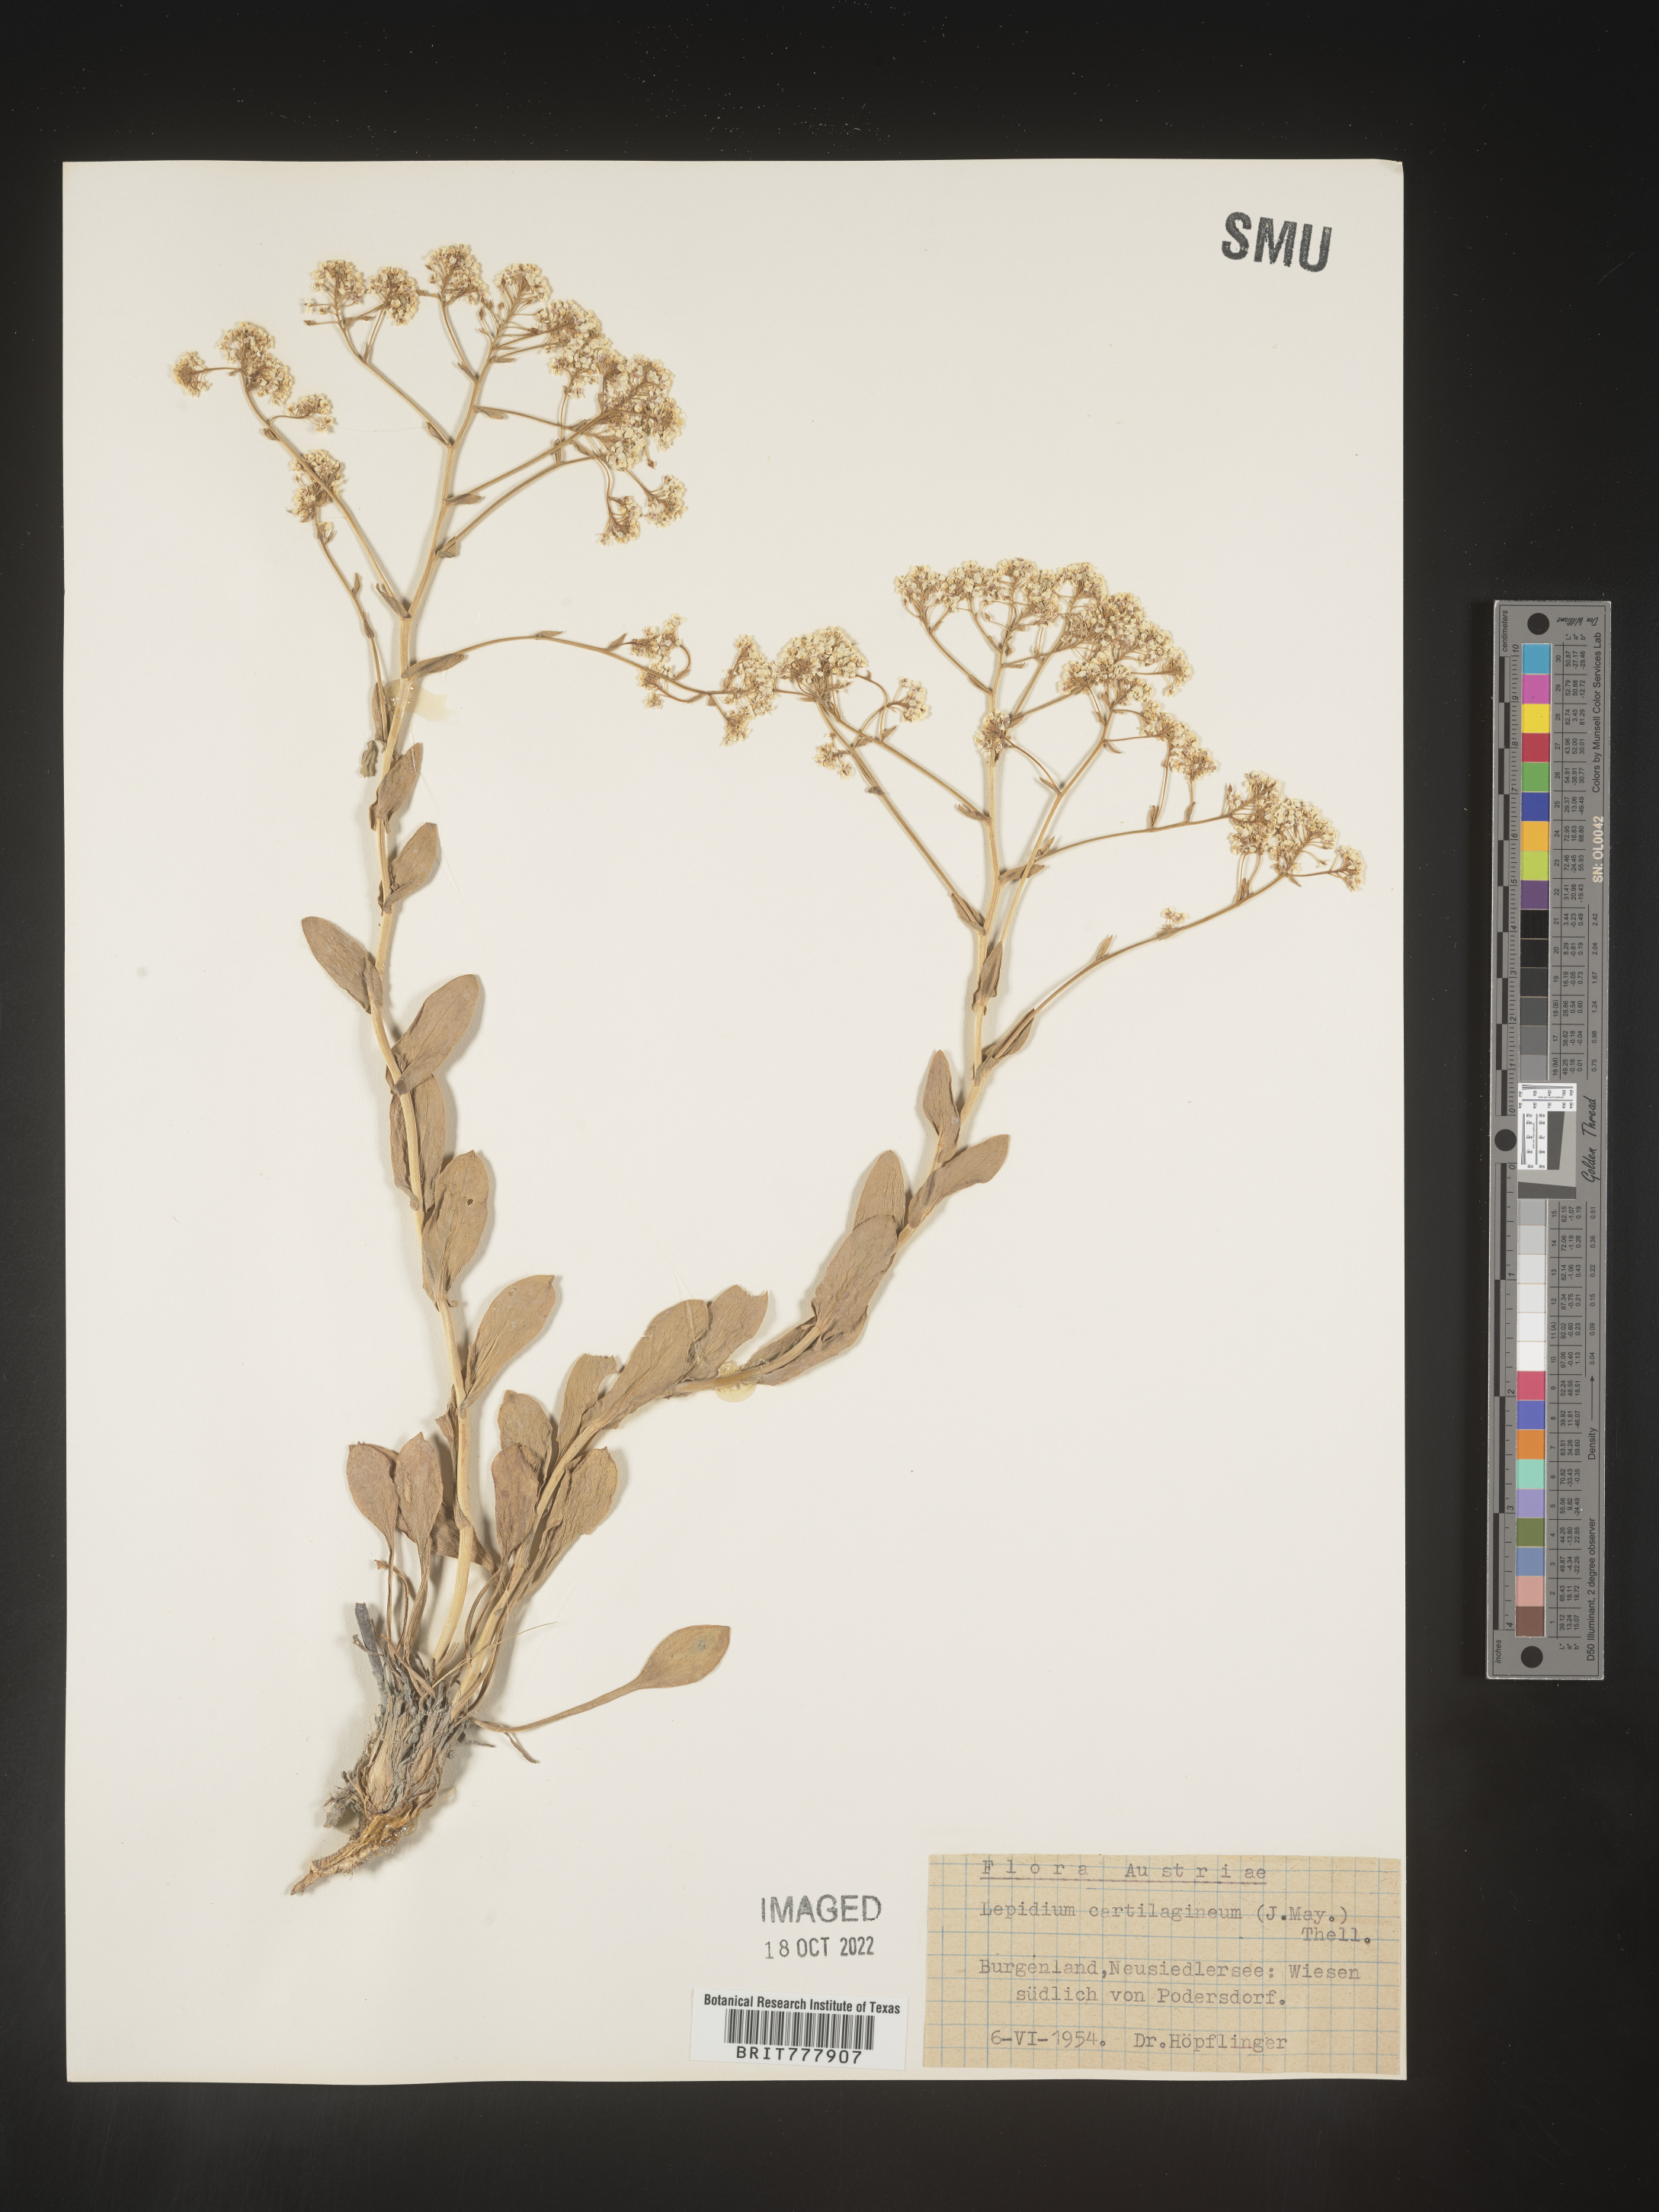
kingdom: Plantae
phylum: Tracheophyta
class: Magnoliopsida
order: Brassicales
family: Brassicaceae
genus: Lepidium
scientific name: Lepidium
